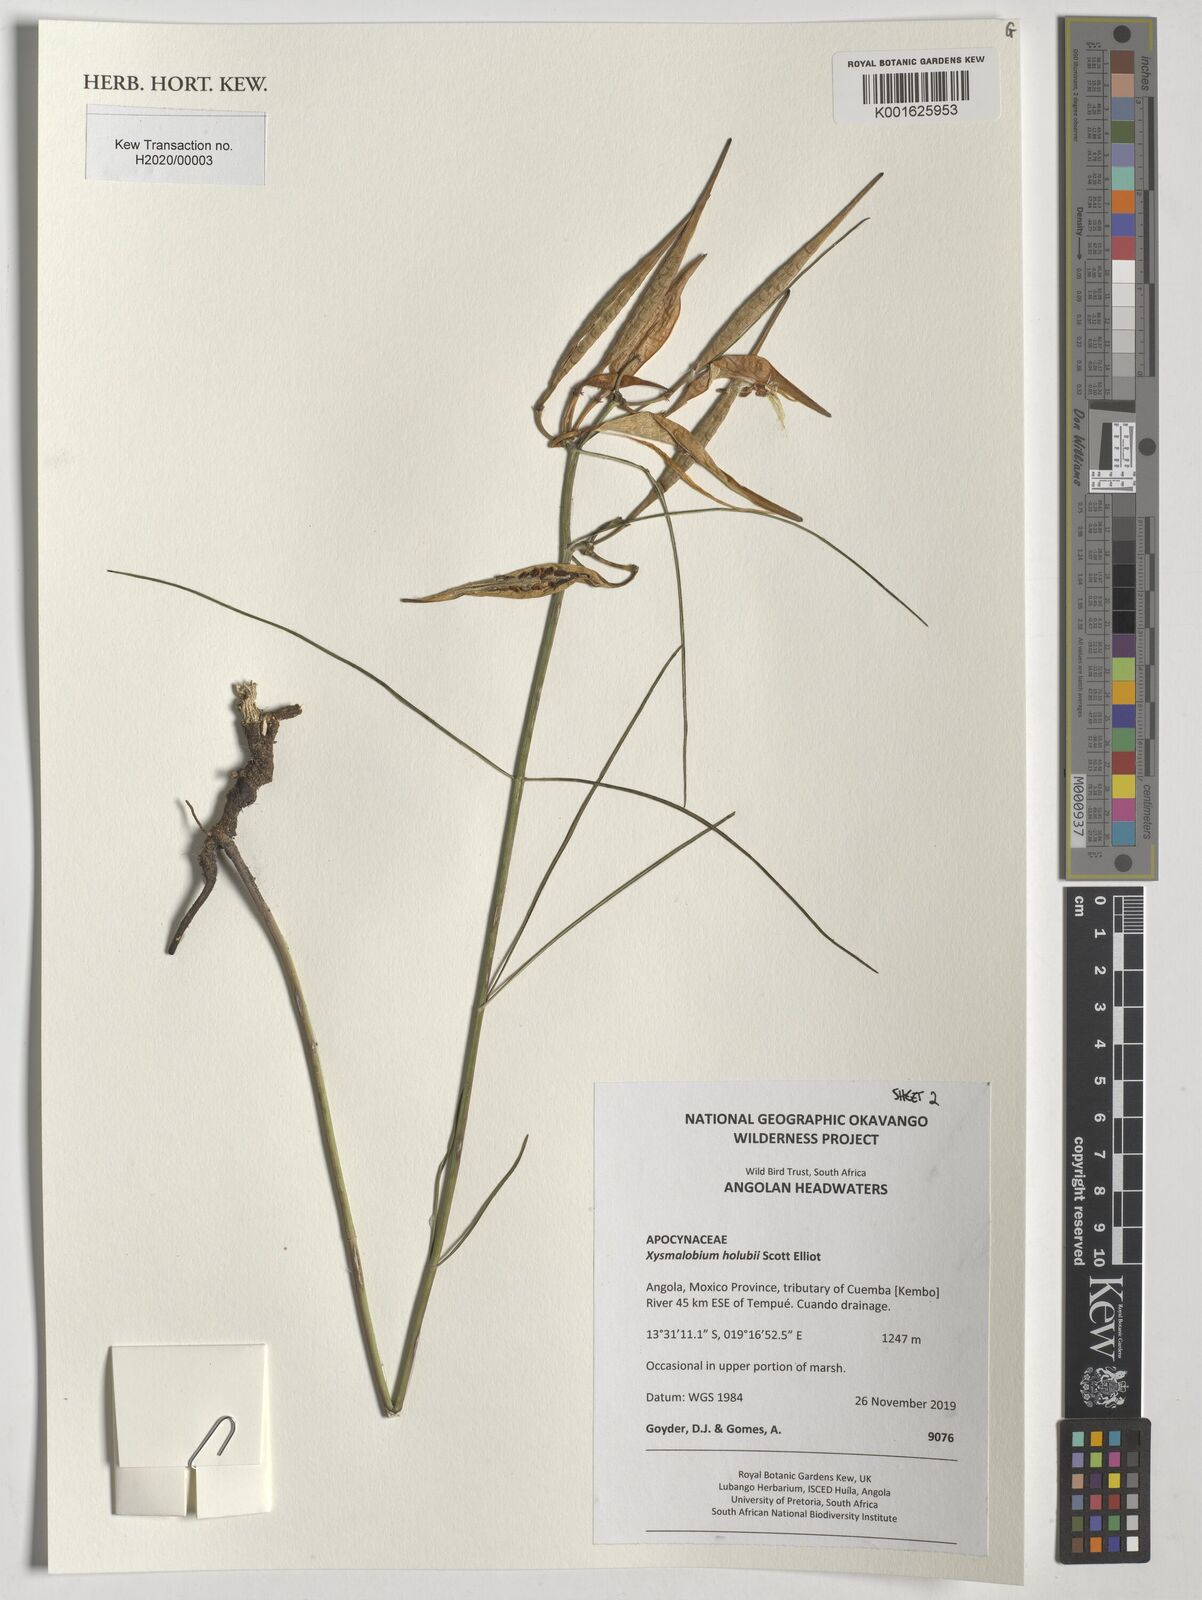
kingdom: Plantae
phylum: Tracheophyta
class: Magnoliopsida
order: Gentianales
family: Apocynaceae
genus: Xysmalobium
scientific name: Xysmalobium holubii
